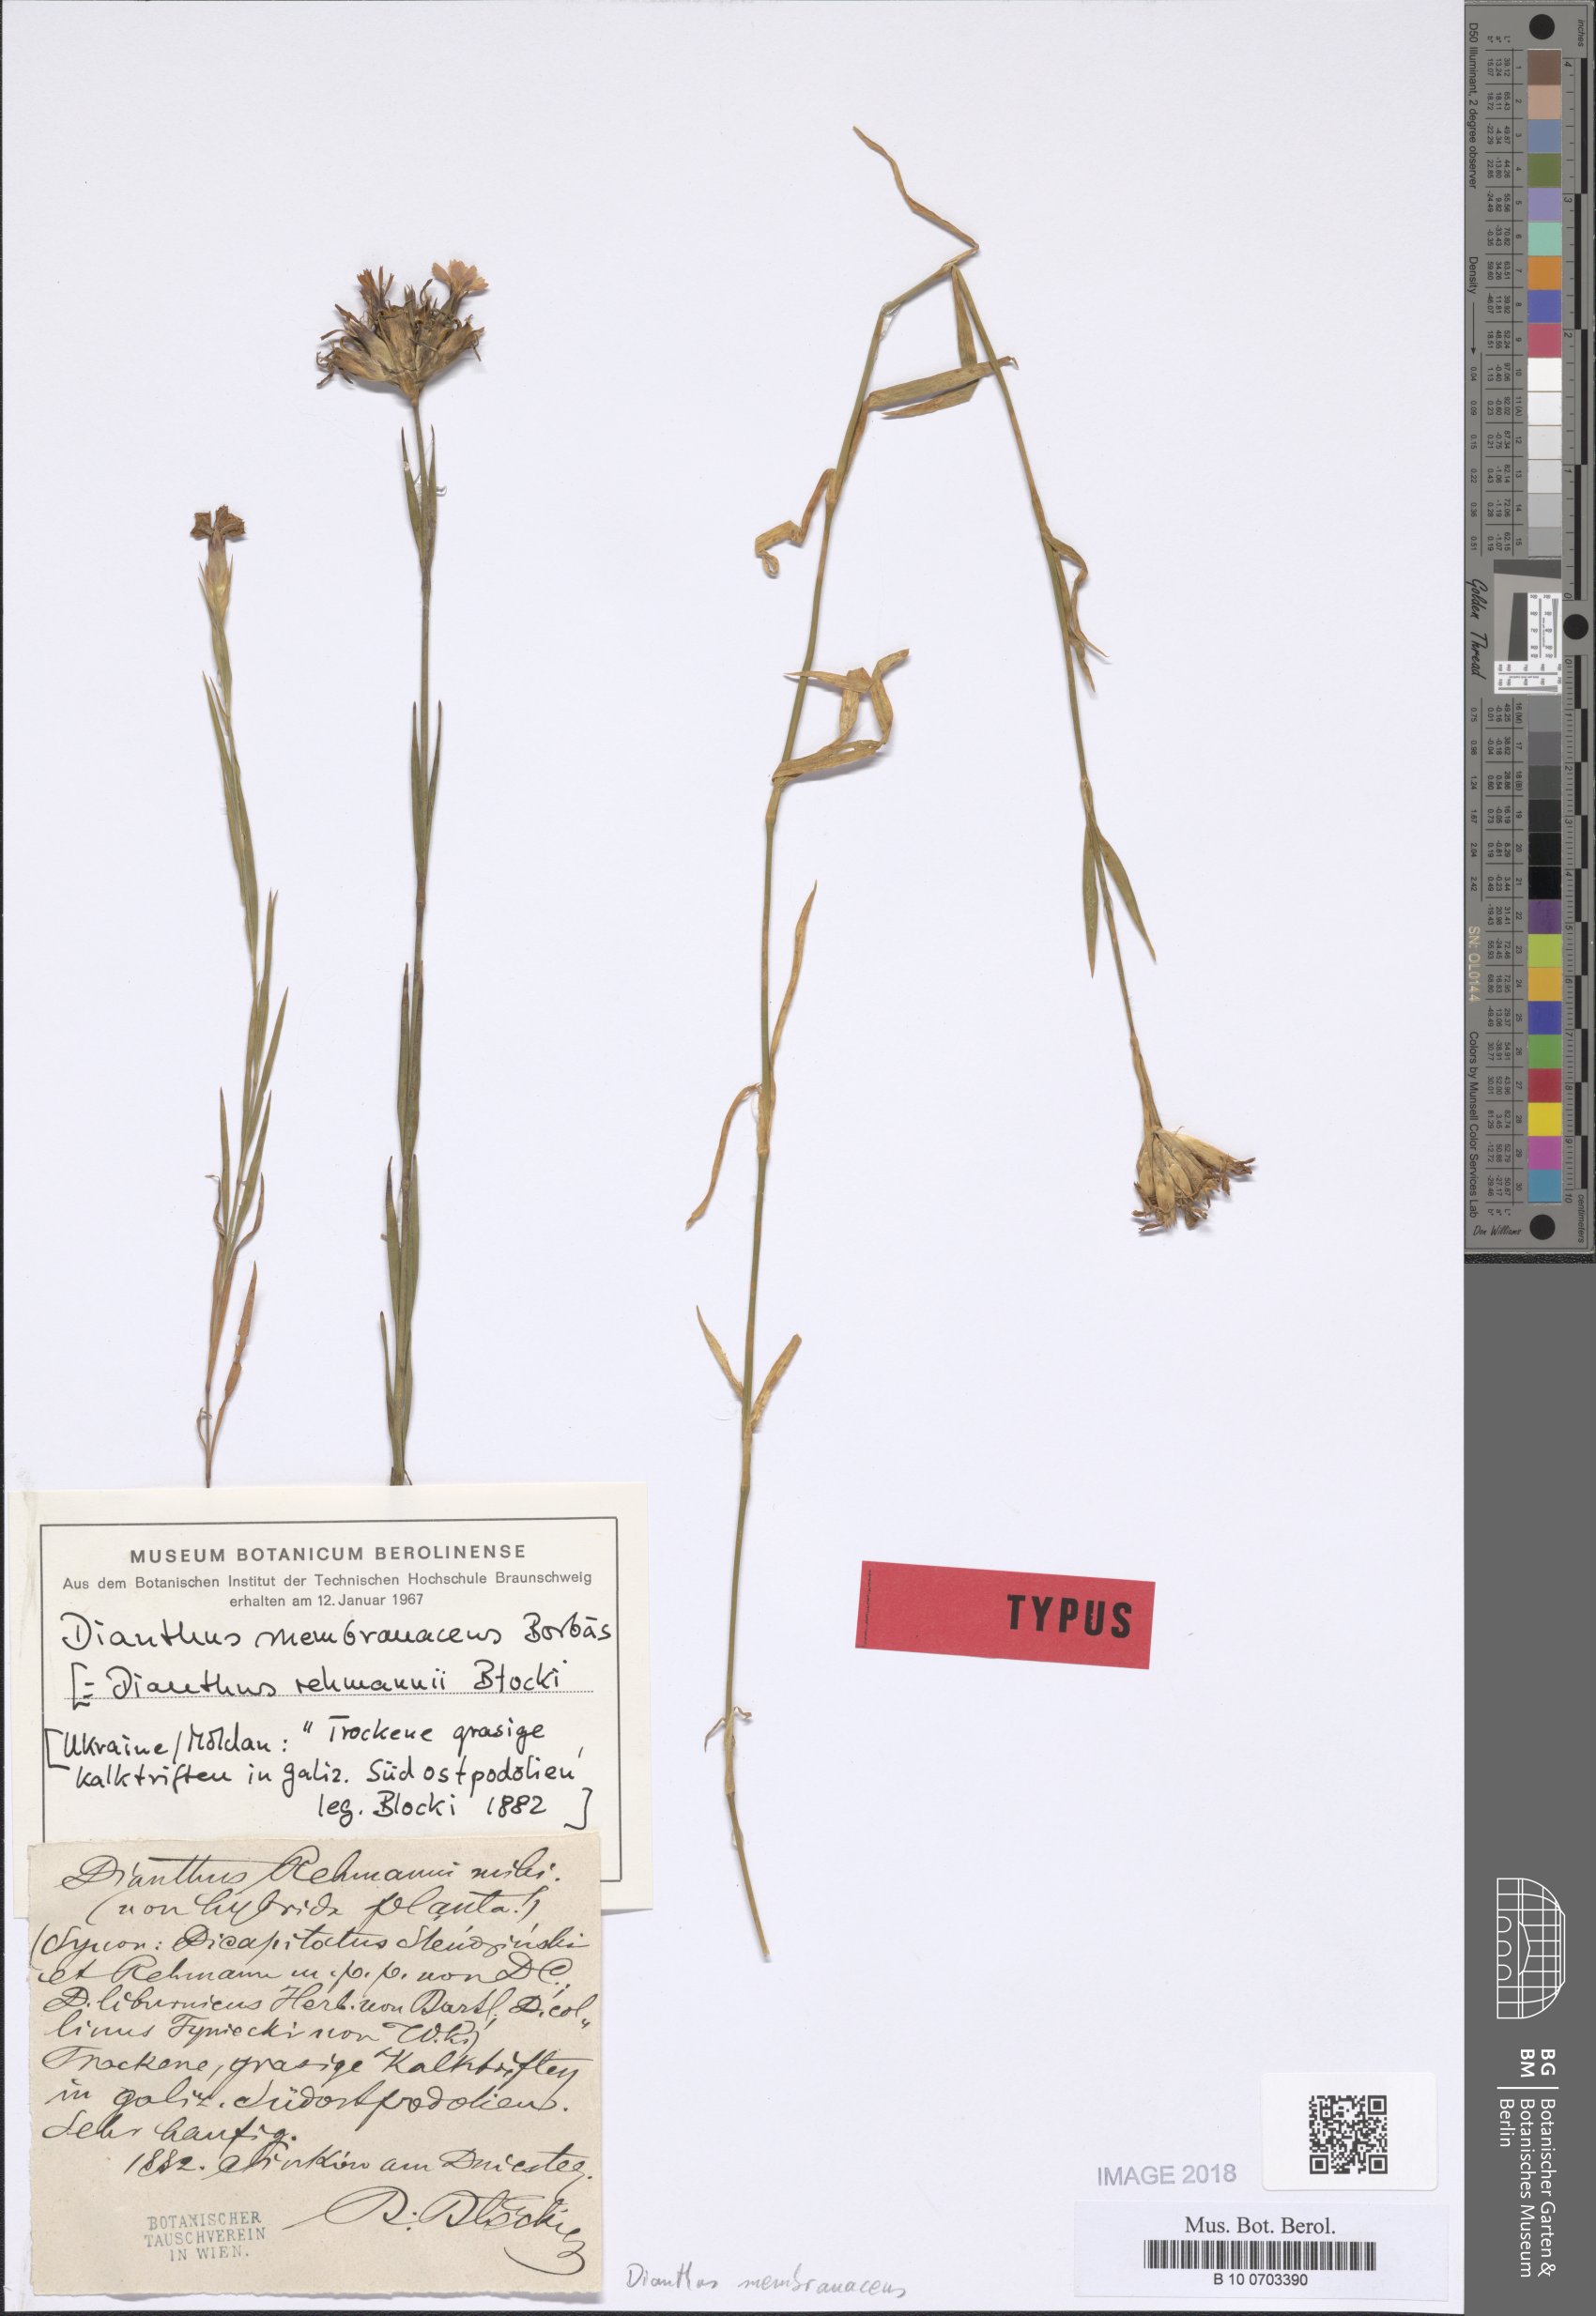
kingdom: Plantae
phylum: Tracheophyta
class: Magnoliopsida
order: Caryophyllales
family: Caryophyllaceae
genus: Dianthus
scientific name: Dianthus membranaceus
